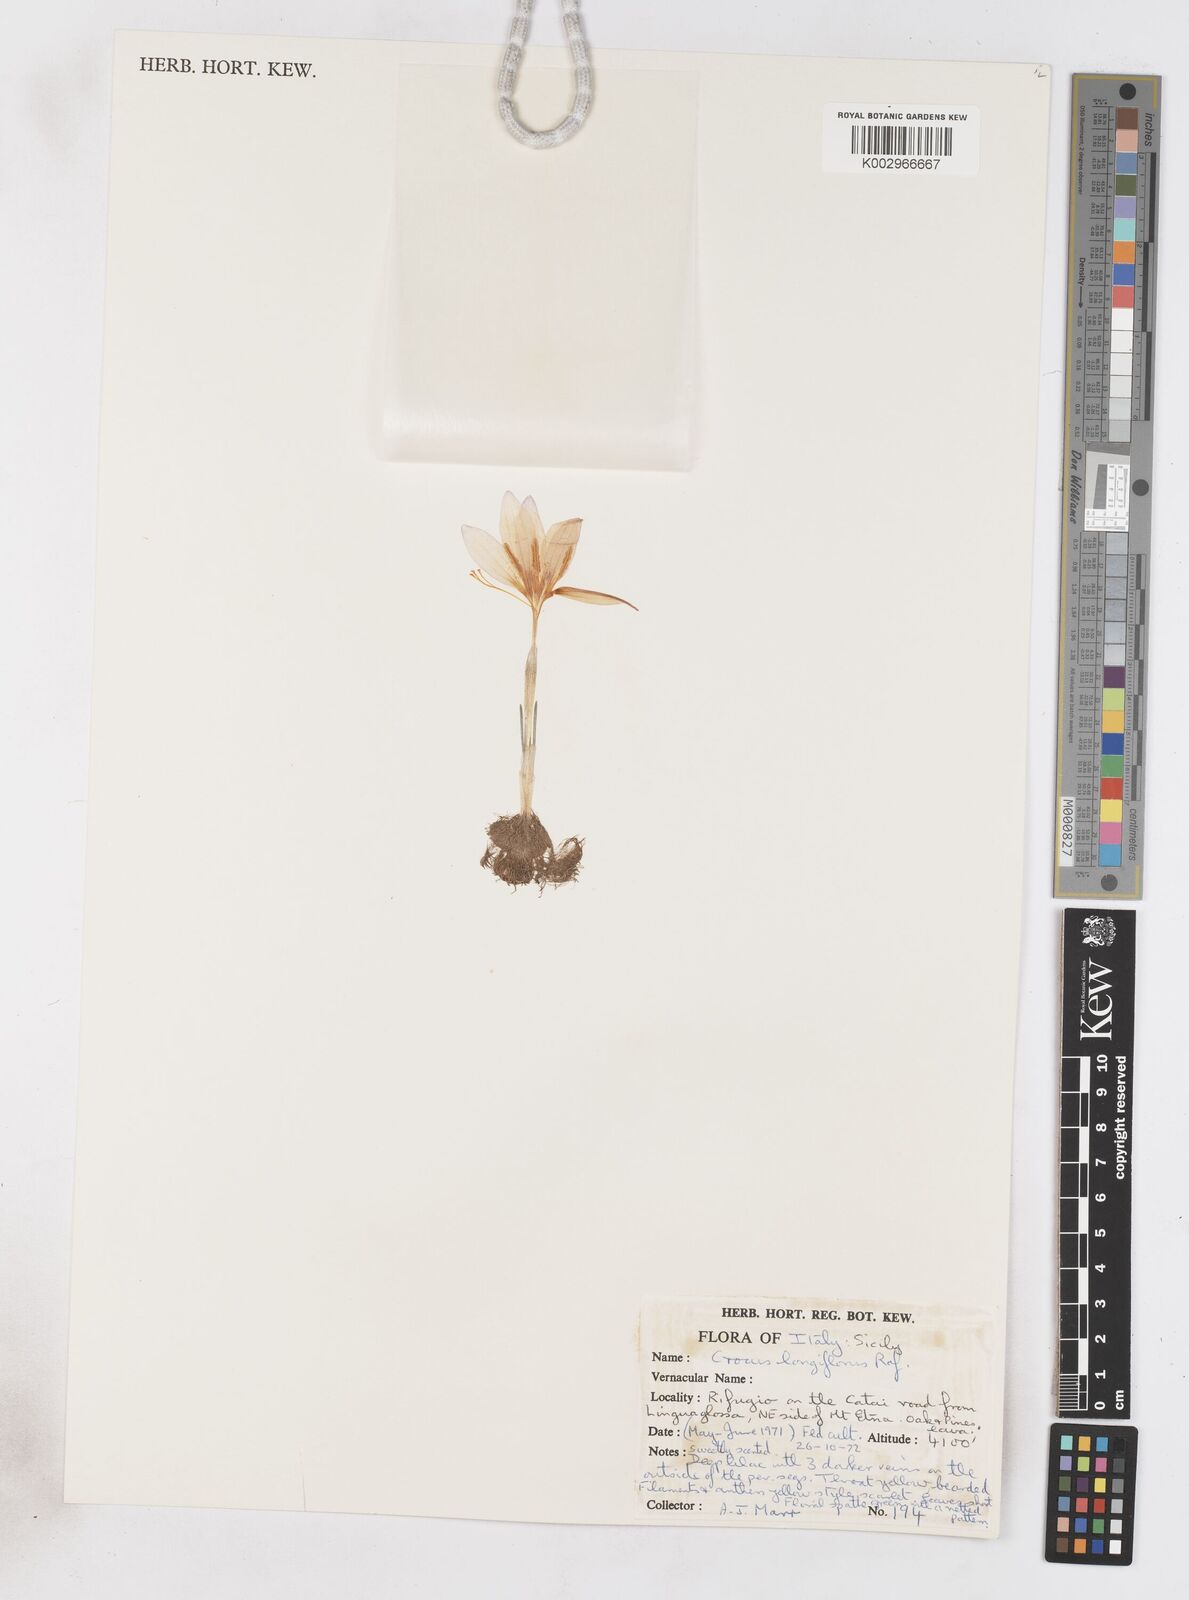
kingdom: Plantae
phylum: Tracheophyta
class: Liliopsida
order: Asparagales
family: Iridaceae
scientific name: Iridaceae
